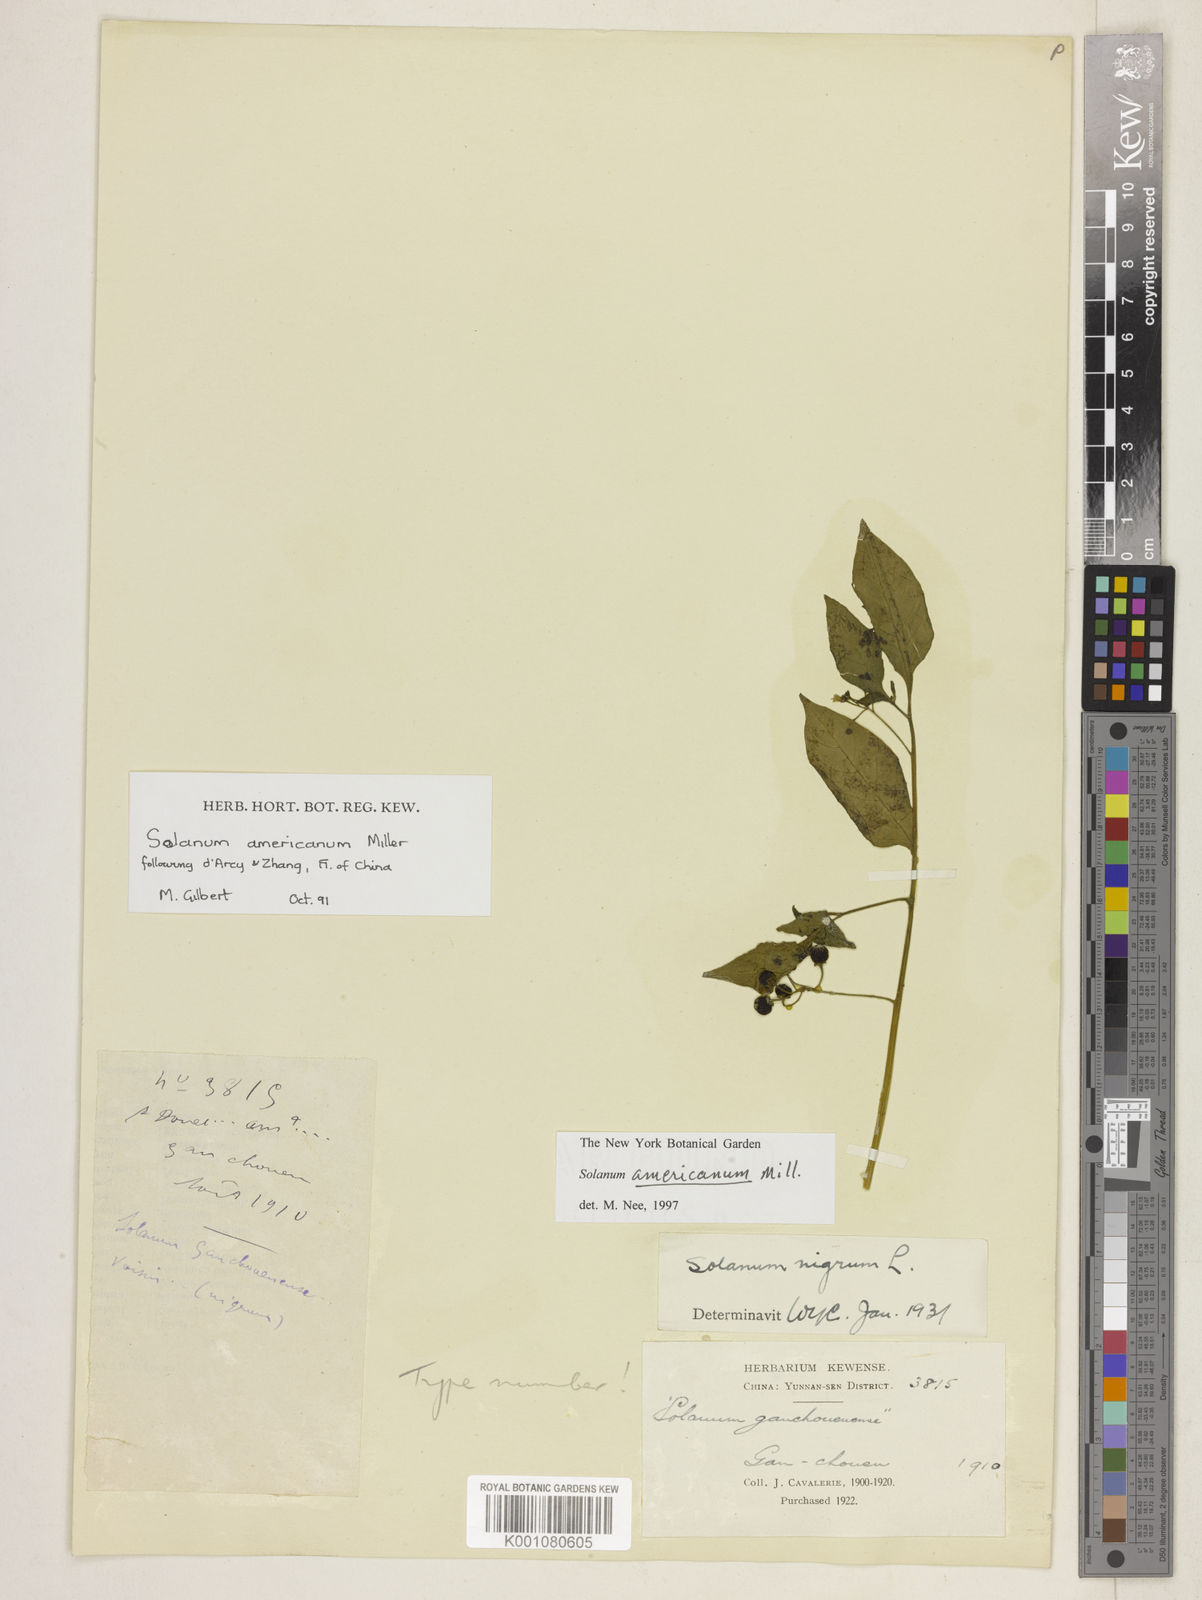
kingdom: Plantae
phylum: Tracheophyta
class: Magnoliopsida
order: Solanales
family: Solanaceae
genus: Solanum
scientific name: Solanum nigrum
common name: Black nightshade
